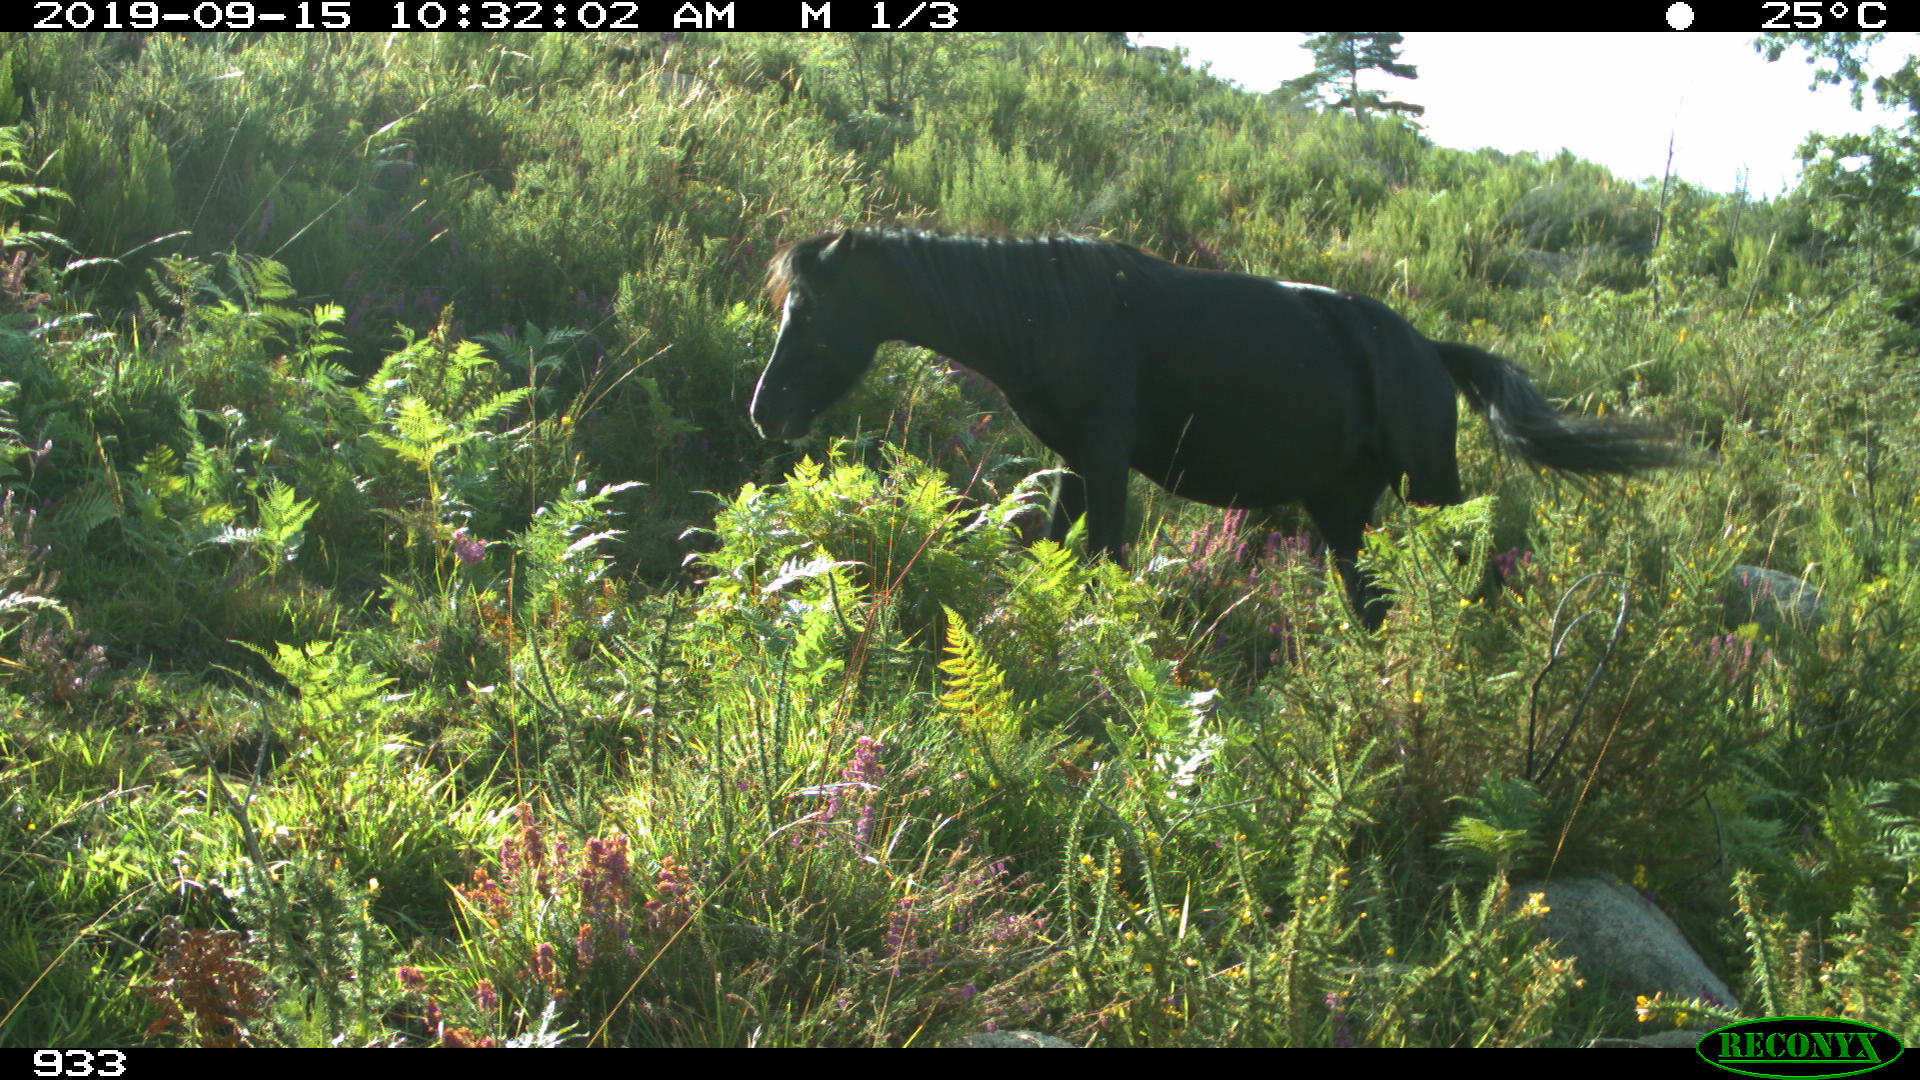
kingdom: Animalia
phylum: Chordata
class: Mammalia
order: Perissodactyla
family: Equidae
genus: Equus
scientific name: Equus caballus
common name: Horse
